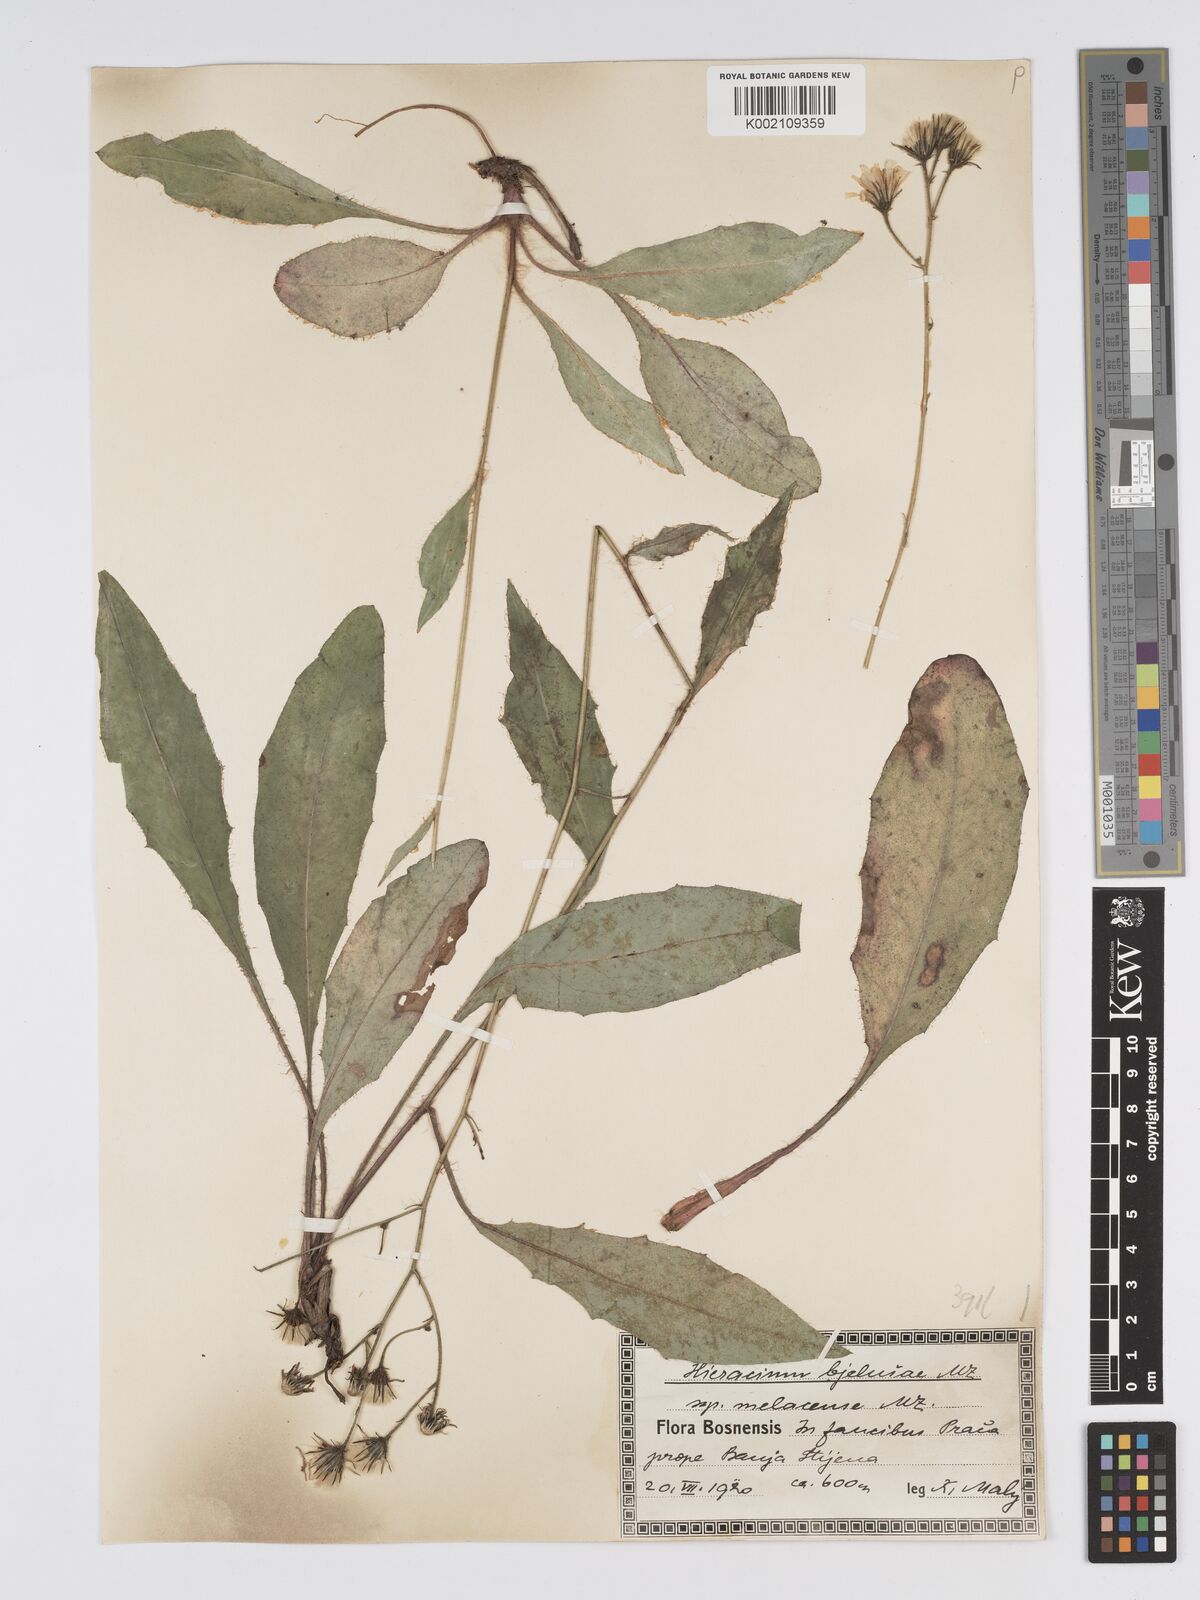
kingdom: Plantae
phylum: Tracheophyta
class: Magnoliopsida
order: Asterales
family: Asteraceae
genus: Hieracium
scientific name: Hieracium bjeluschae
